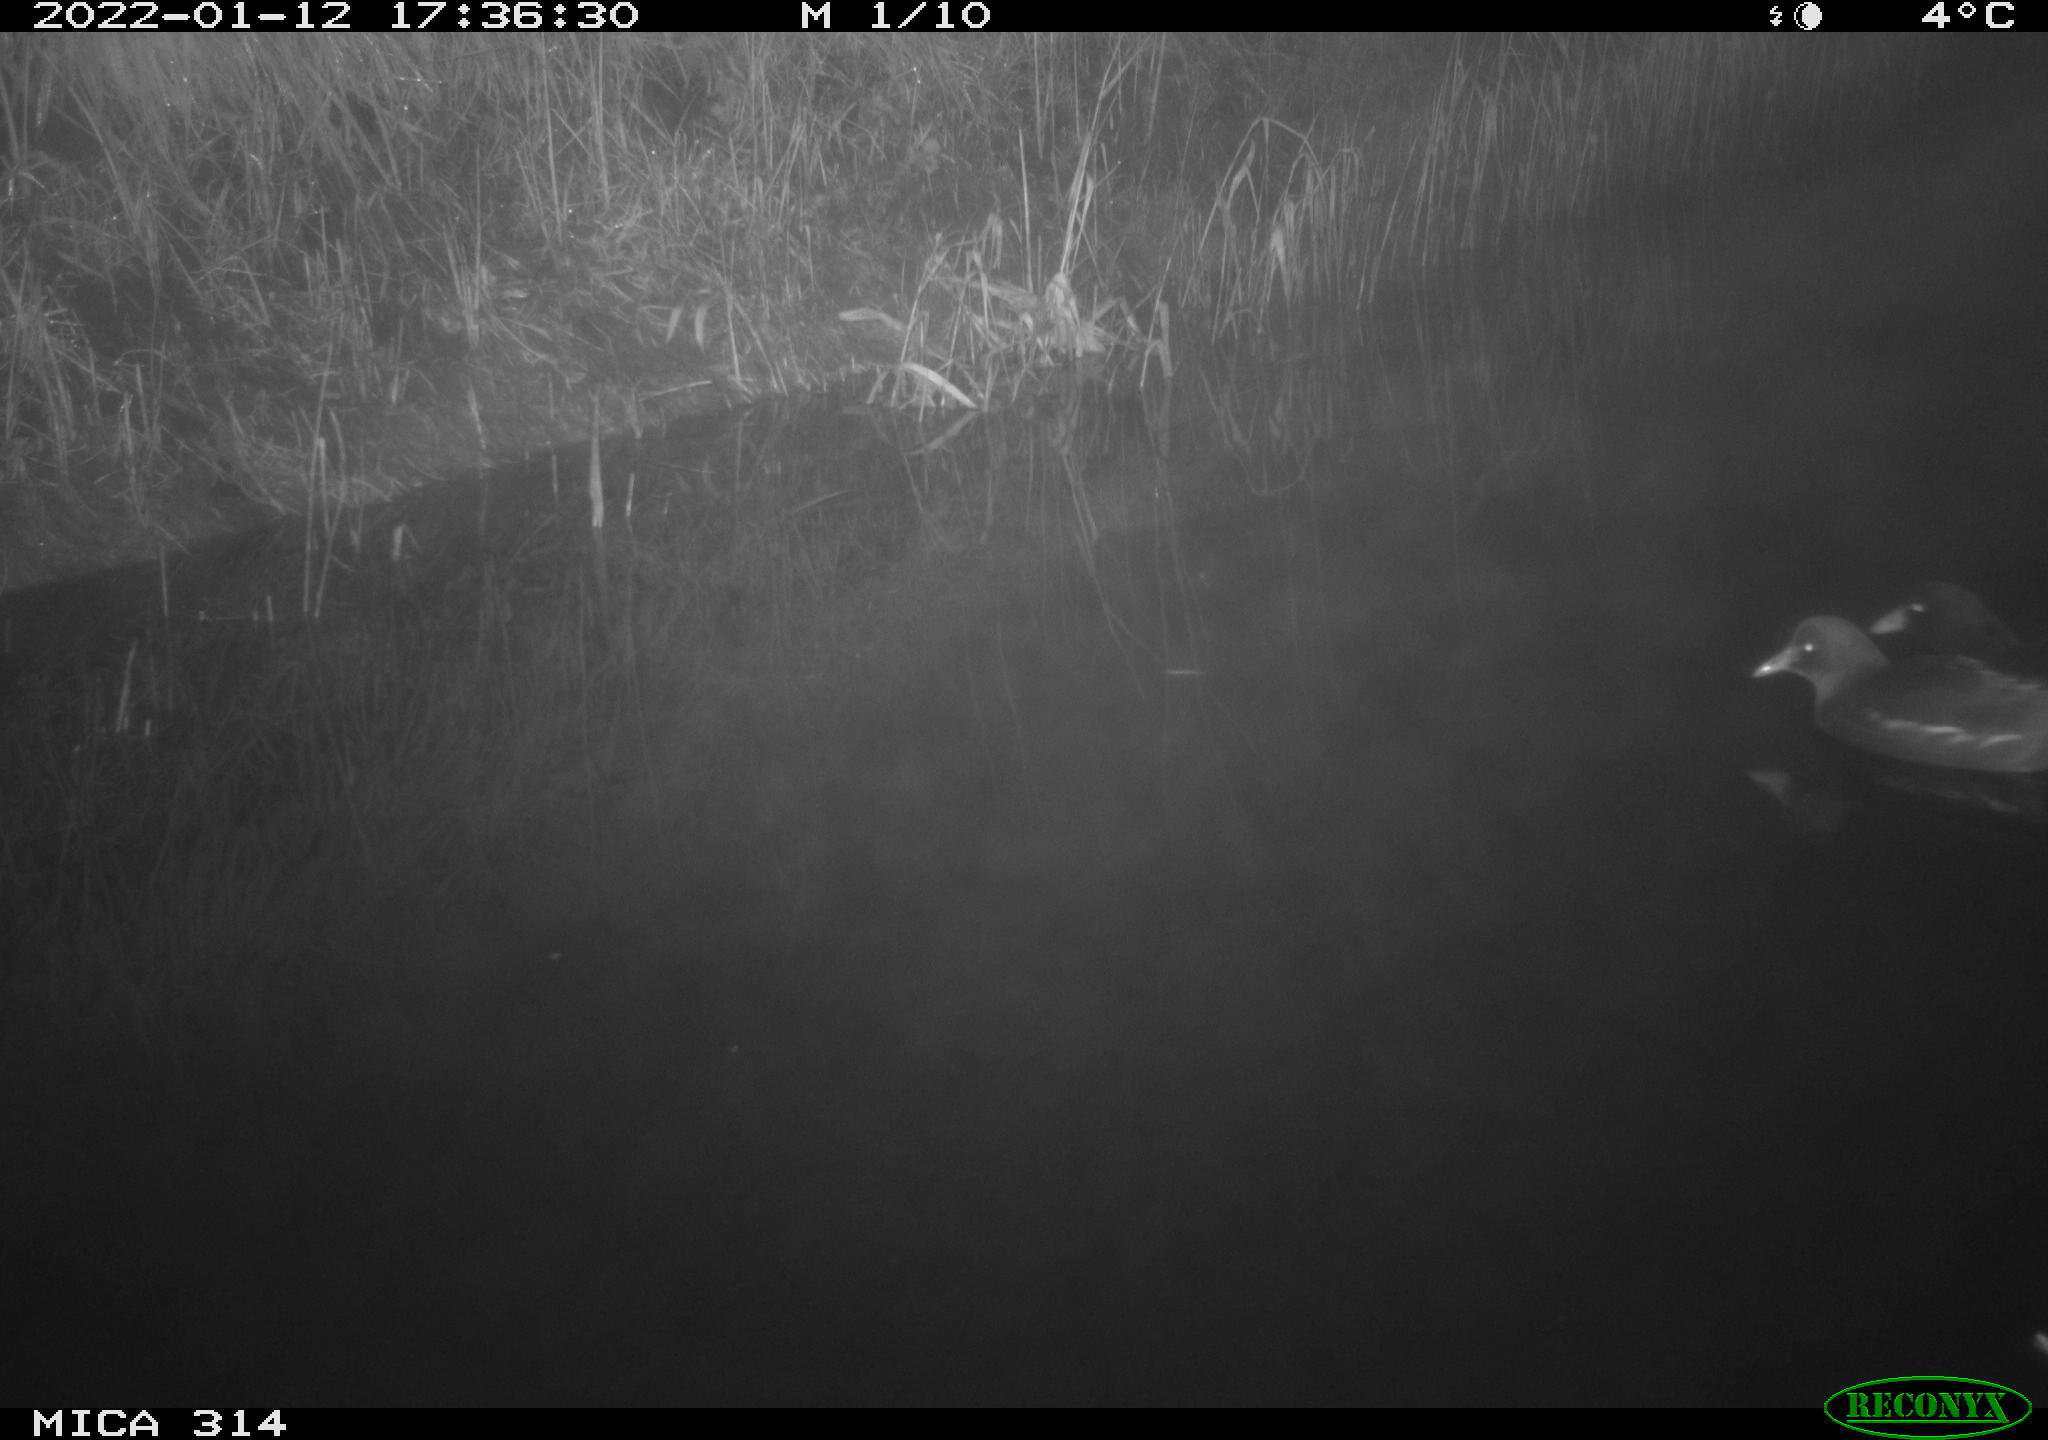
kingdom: Animalia
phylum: Chordata
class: Aves
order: Gruiformes
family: Rallidae
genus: Gallinula
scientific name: Gallinula chloropus
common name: Common moorhen
